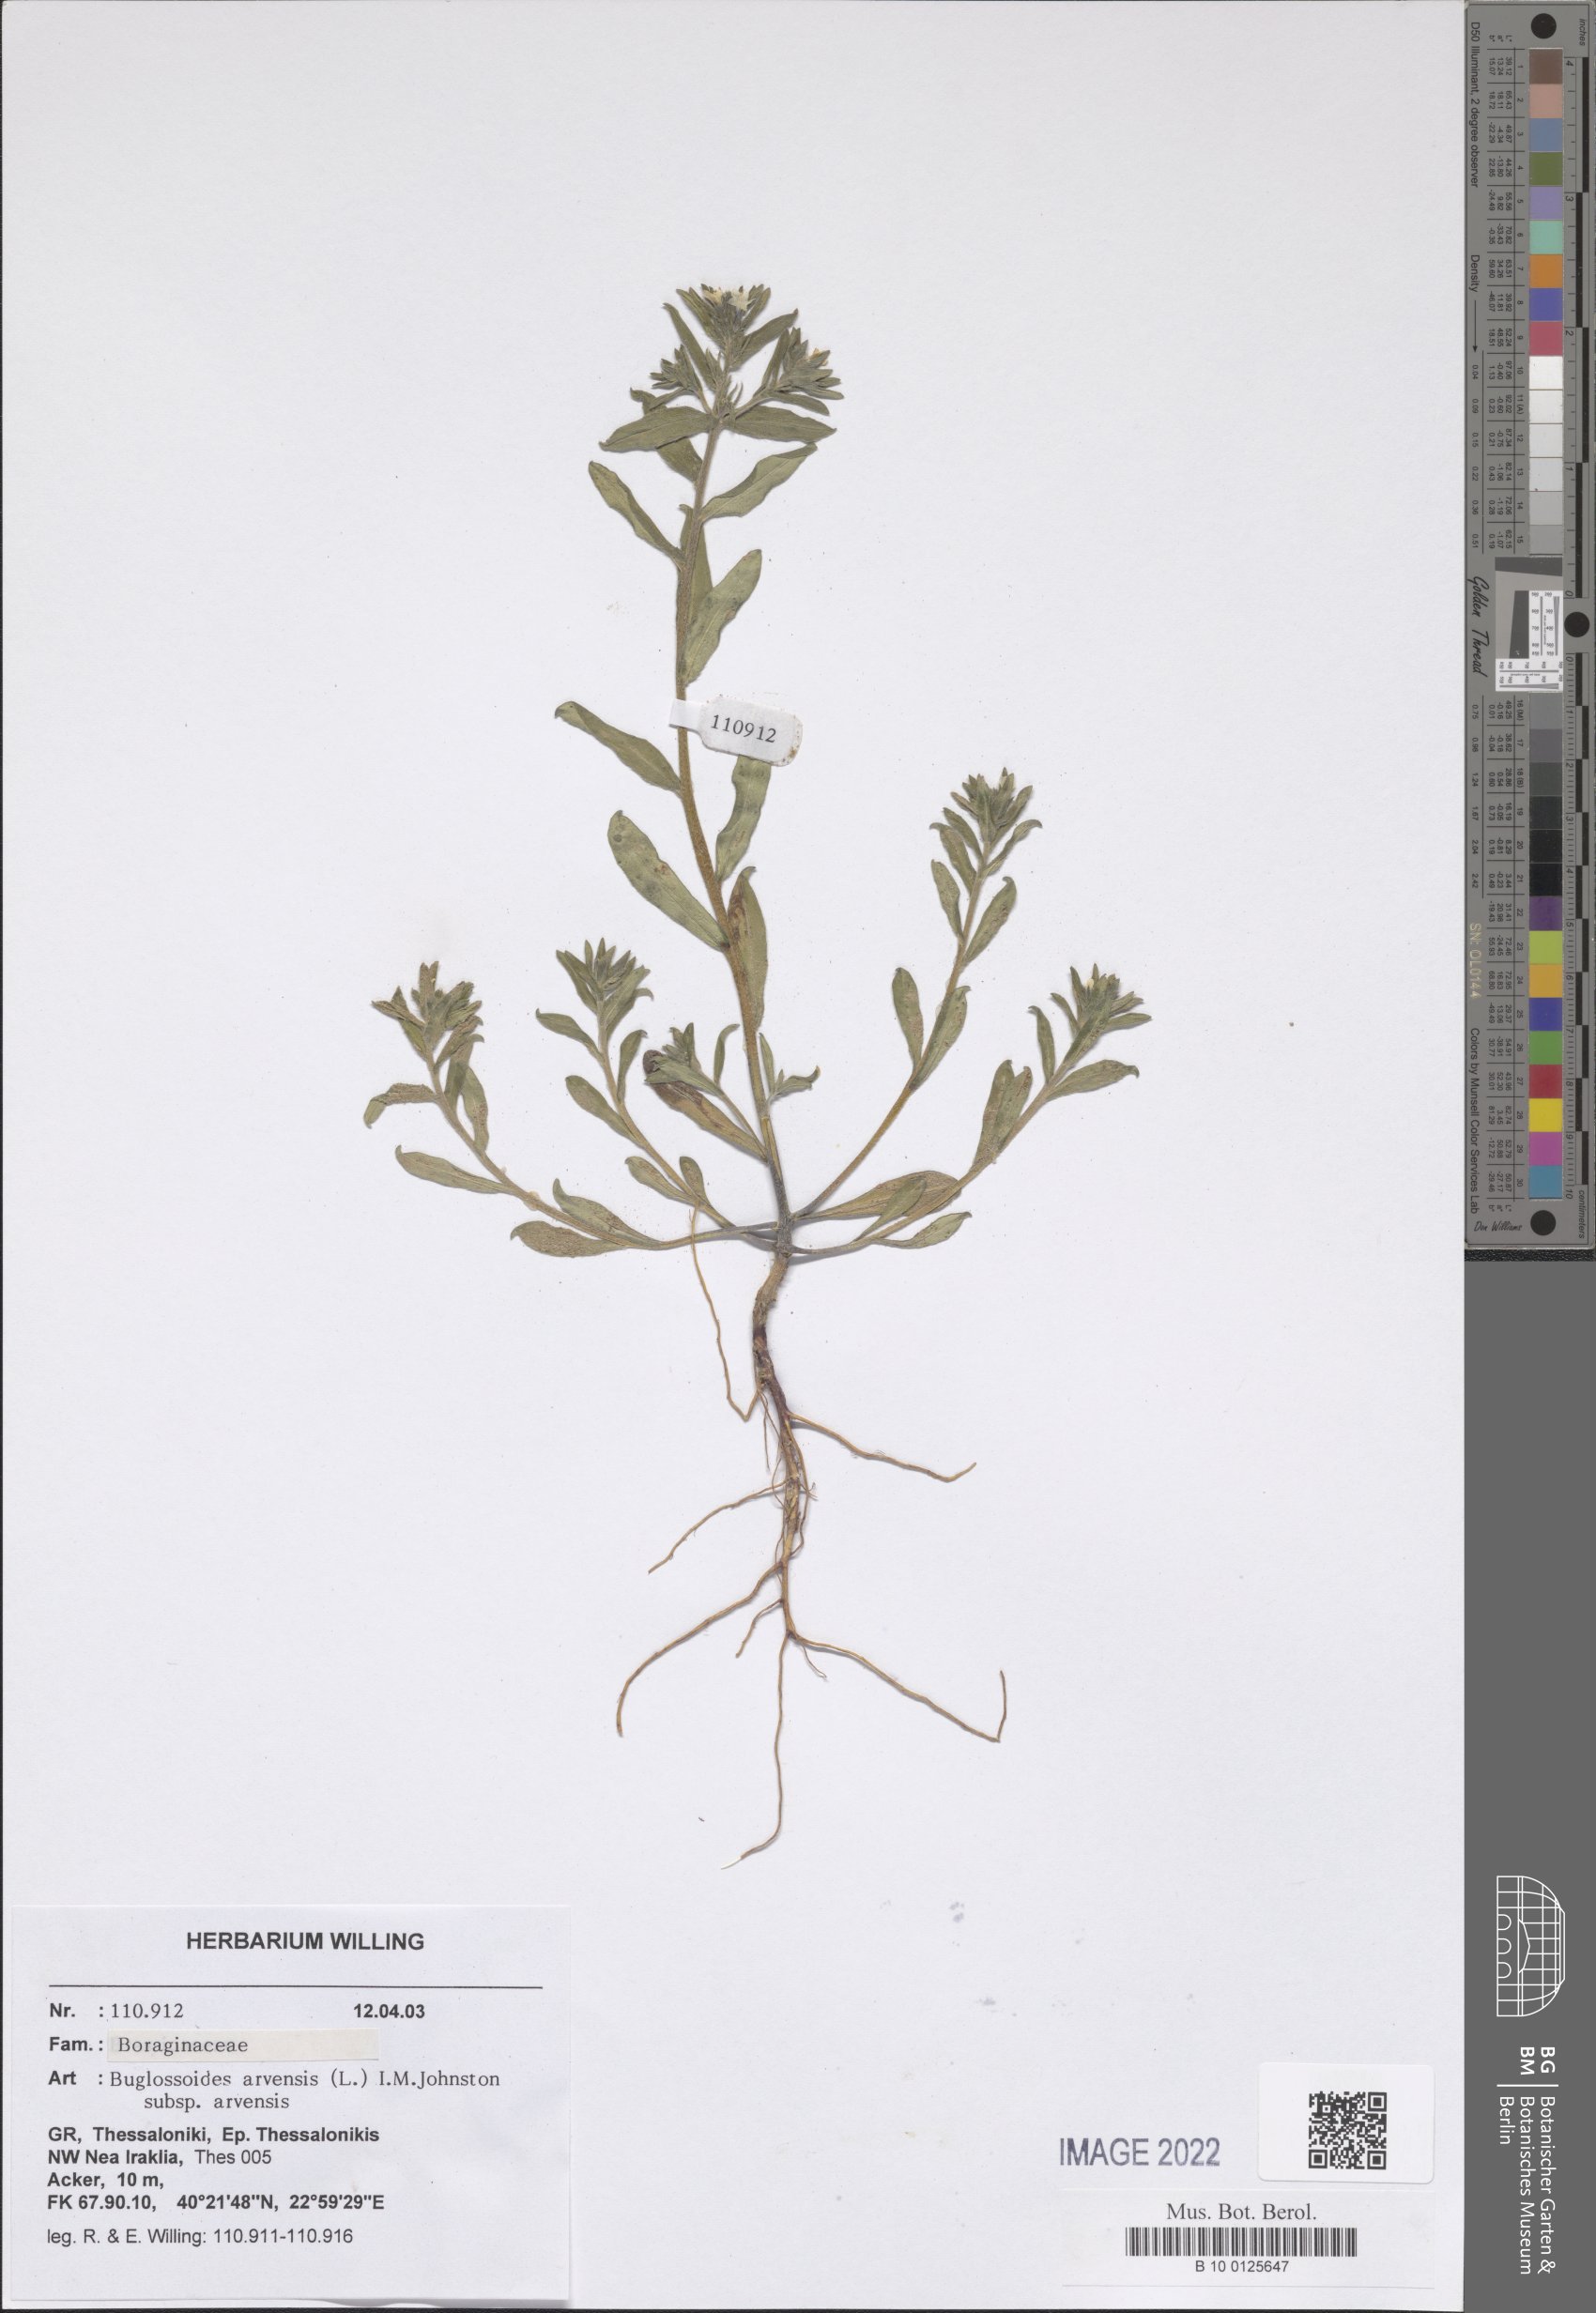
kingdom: Plantae
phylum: Tracheophyta
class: Magnoliopsida
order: Boraginales
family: Boraginaceae
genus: Buglossoides
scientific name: Buglossoides arvensis
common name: Corn gromwell
